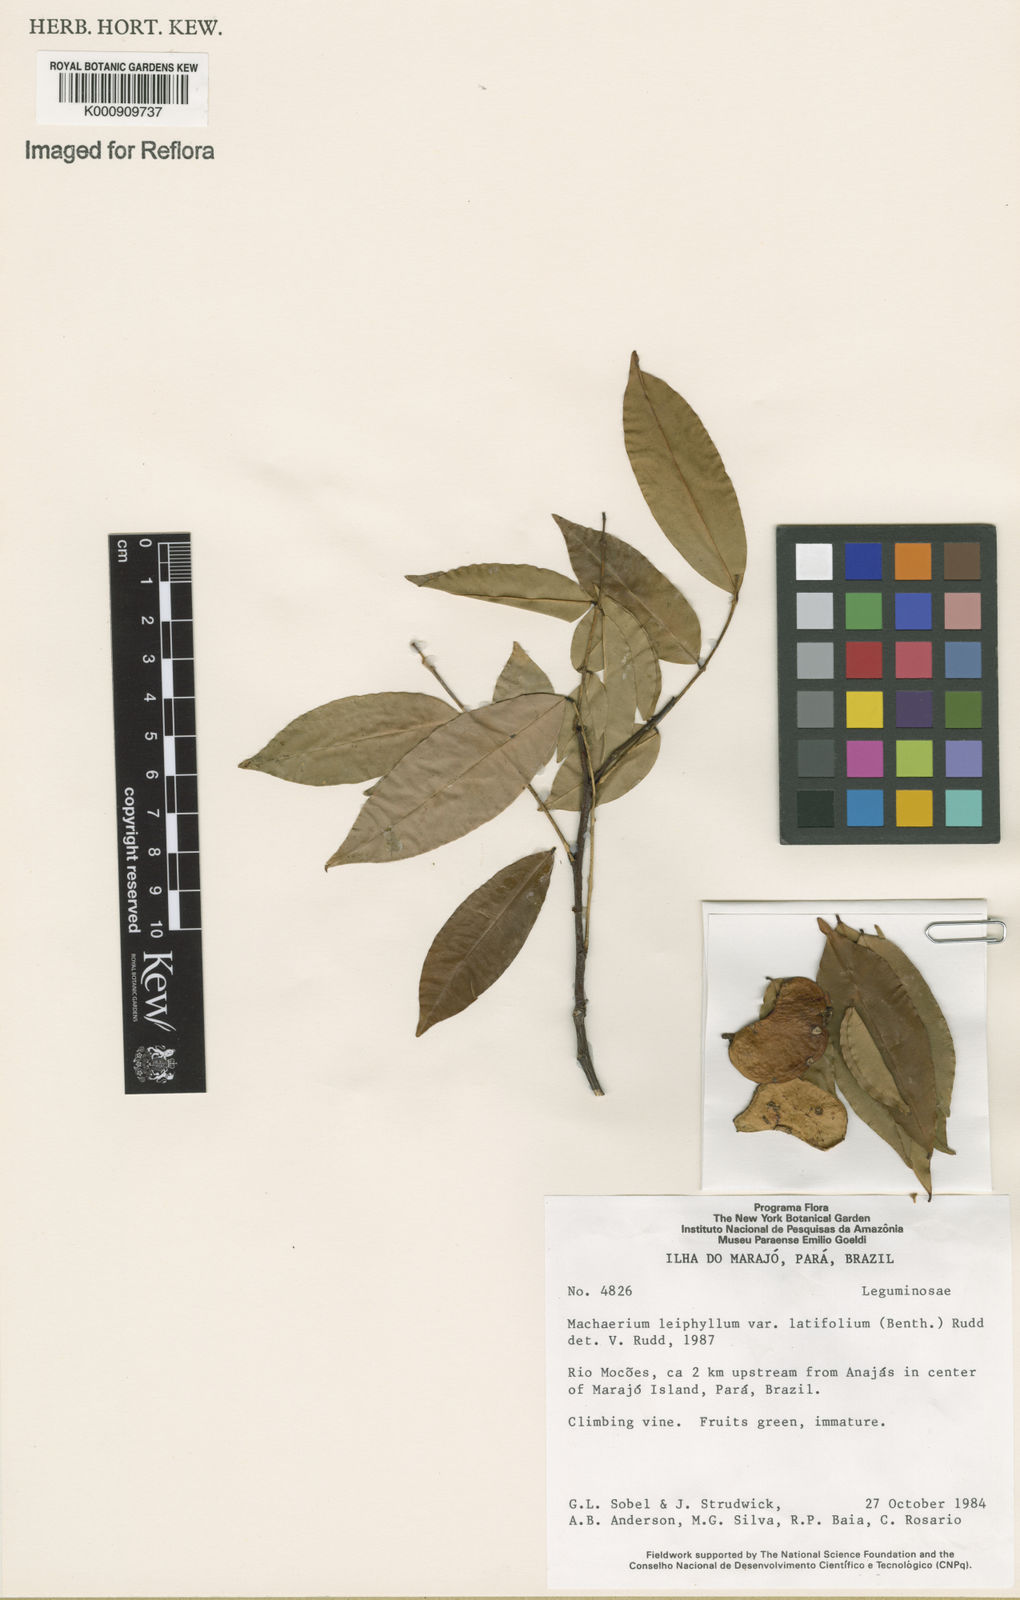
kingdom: Plantae
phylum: Tracheophyta
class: Magnoliopsida
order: Fabales
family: Fabaceae
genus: Machaerium
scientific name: Machaerium leiophyllum
